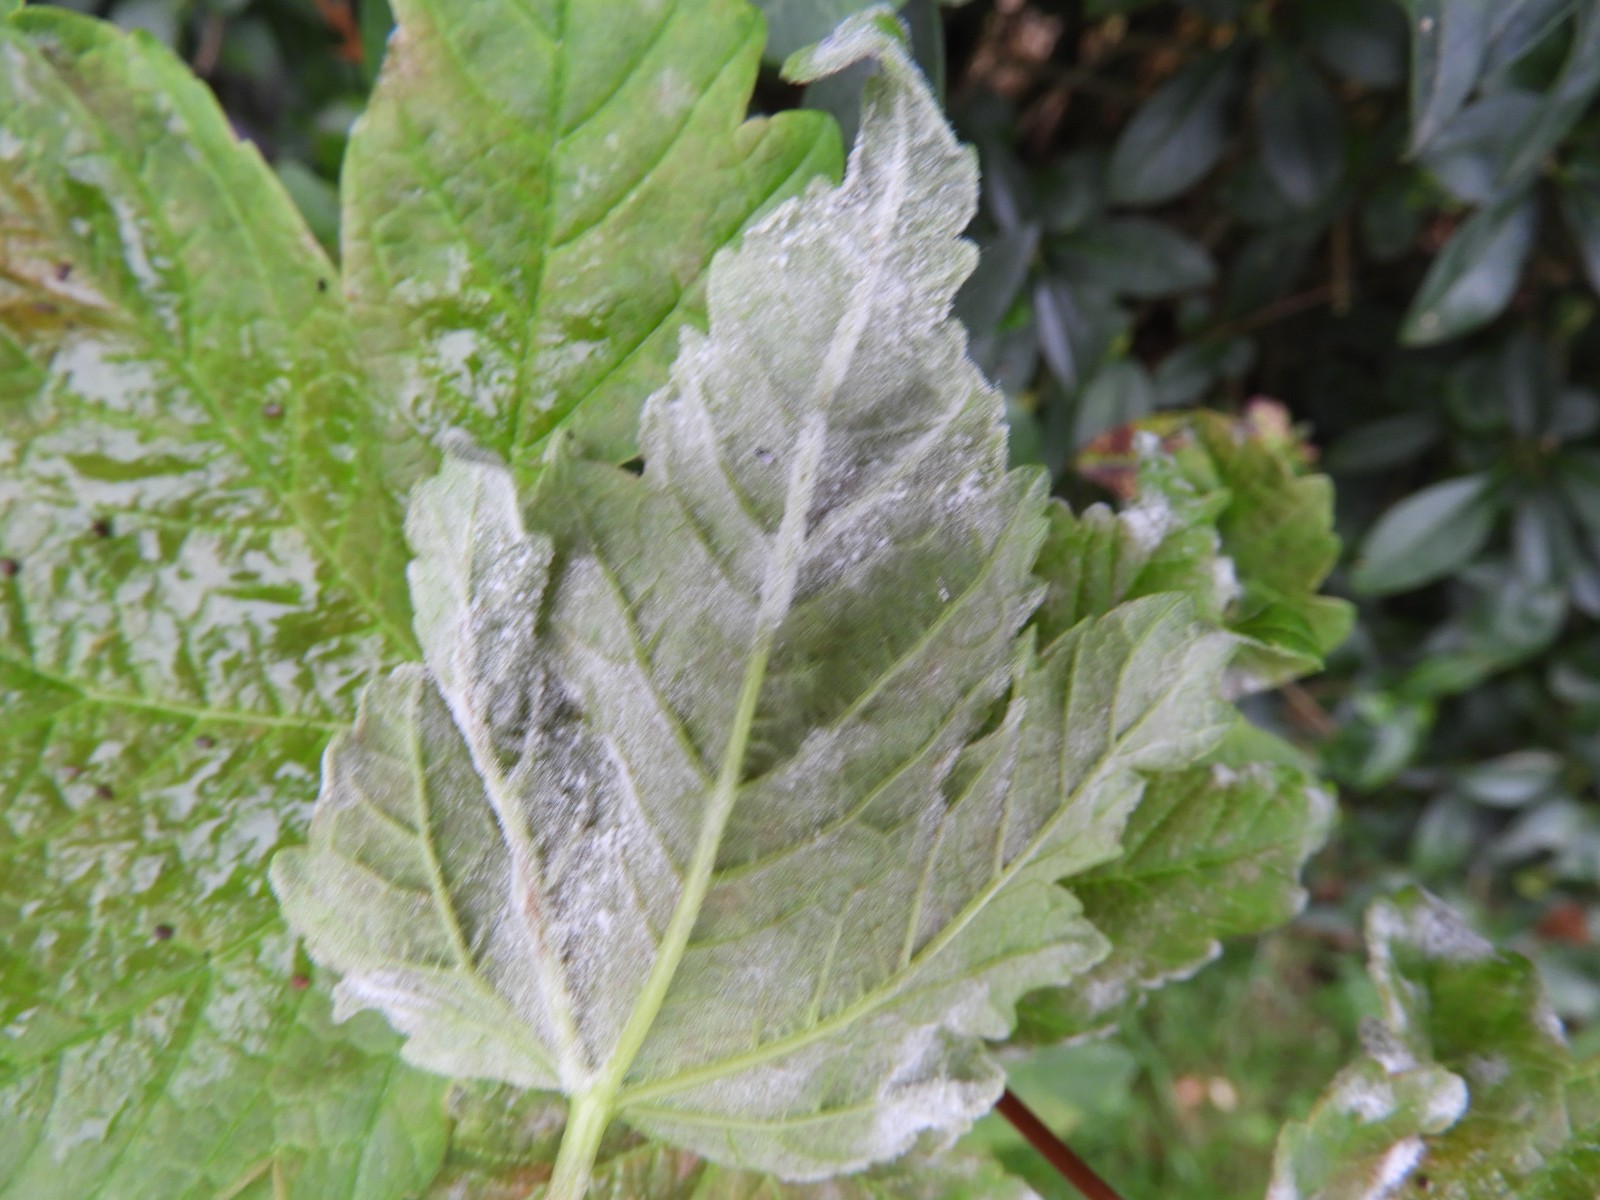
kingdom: Fungi
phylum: Ascomycota
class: Leotiomycetes
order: Helotiales
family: Erysiphaceae
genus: Sawadaea
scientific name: Sawadaea bicornis
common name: Maple mildew
